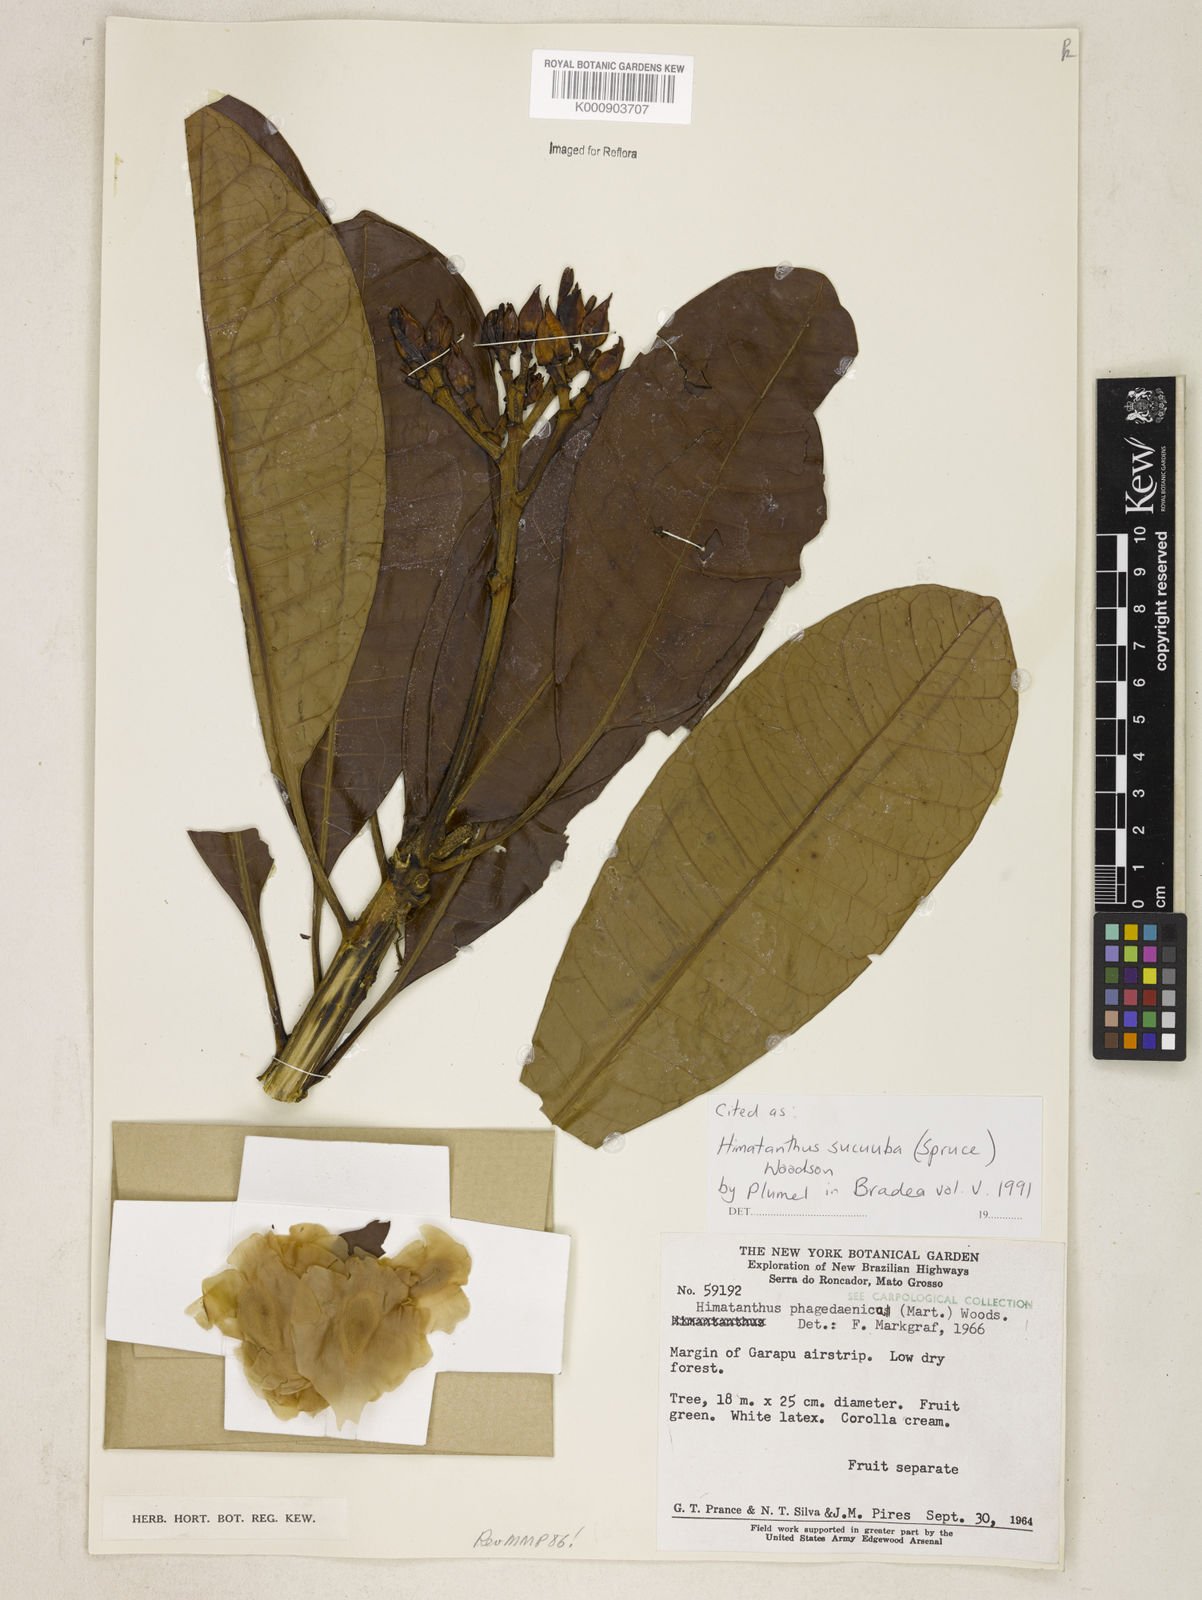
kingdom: Plantae
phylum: Tracheophyta
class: Magnoliopsida
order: Gentianales
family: Apocynaceae
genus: Himatanthus
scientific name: Himatanthus articulatus
